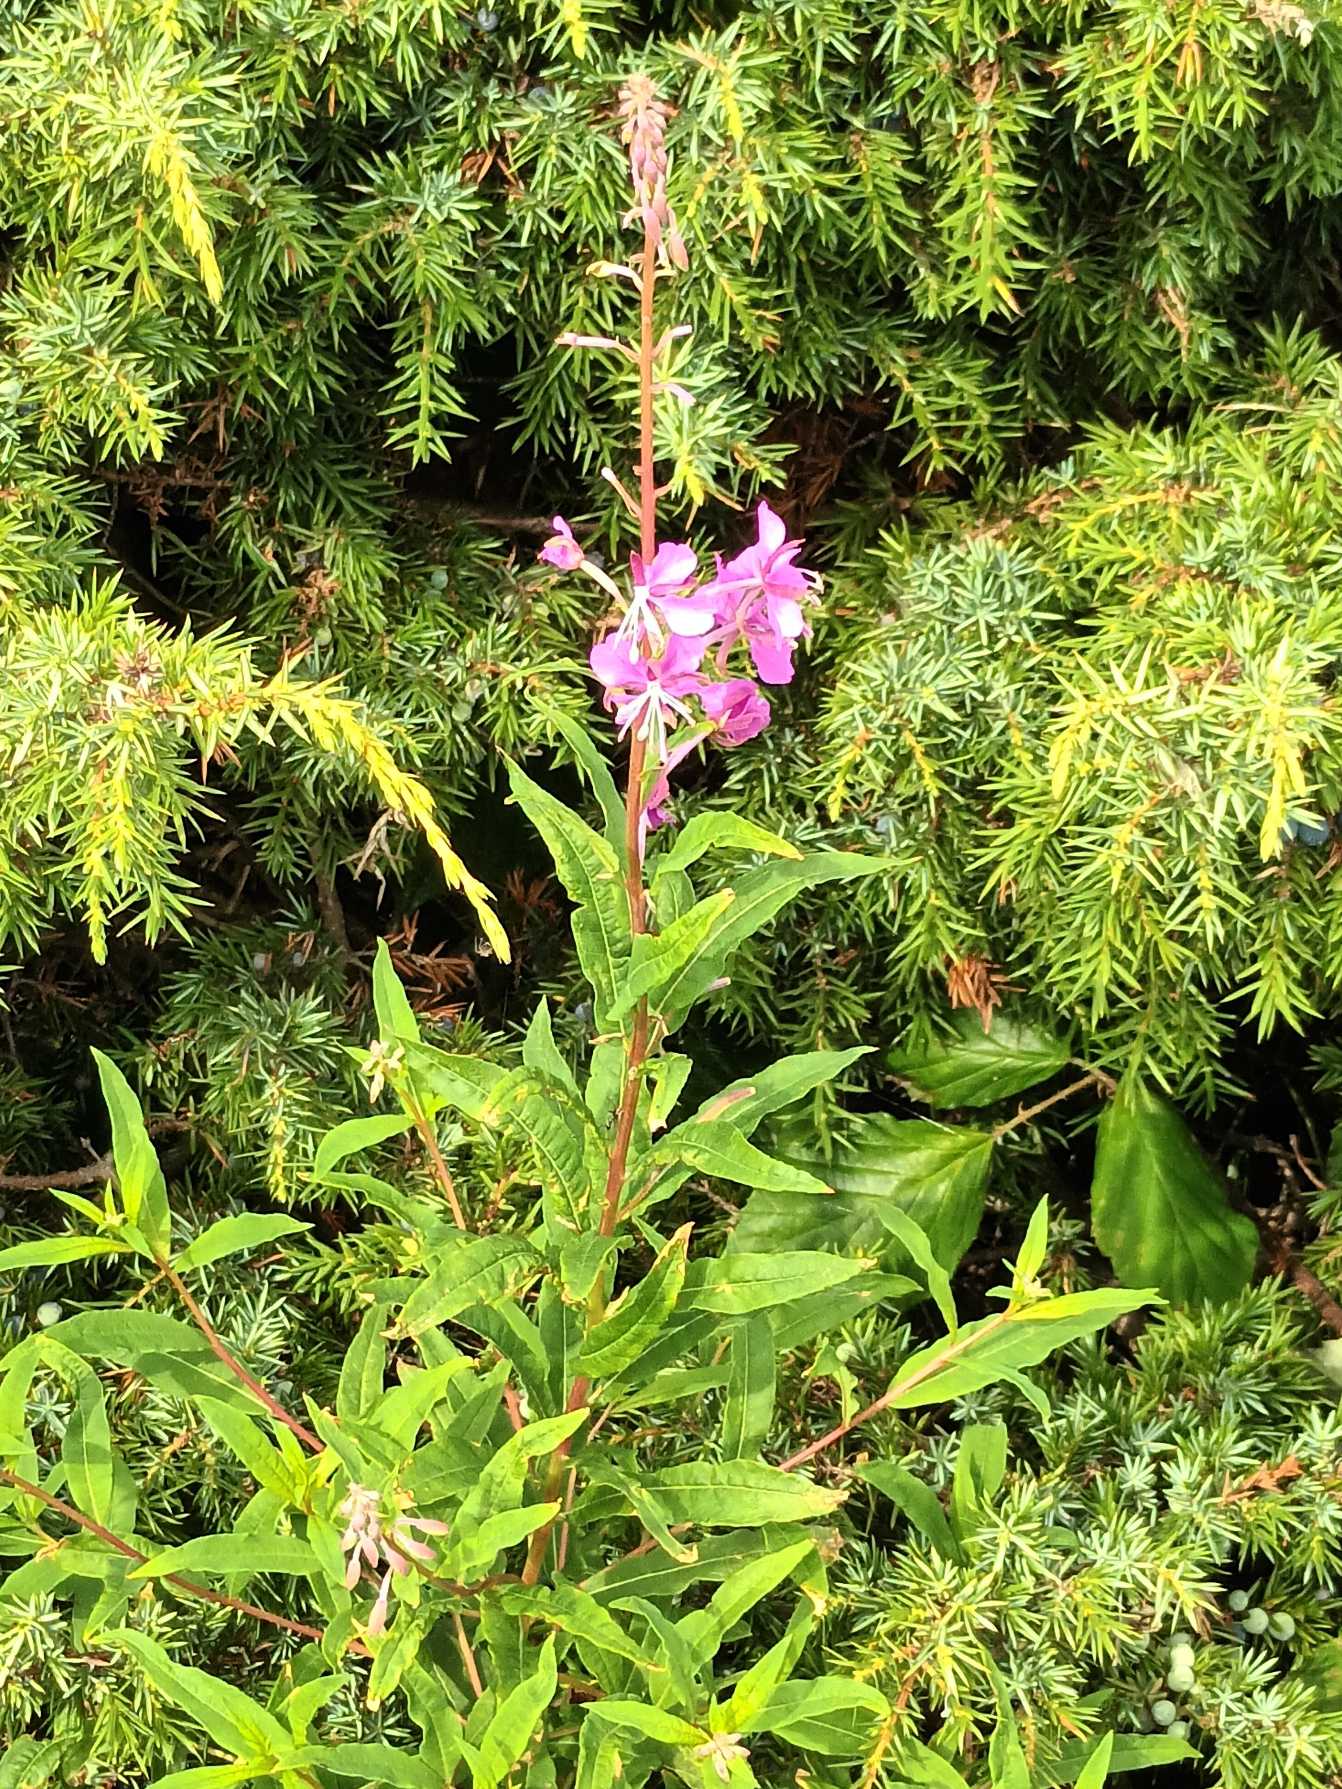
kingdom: Plantae
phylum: Tracheophyta
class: Magnoliopsida
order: Myrtales
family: Onagraceae
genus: Chamaenerion
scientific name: Chamaenerion angustifolium
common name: Gederams
